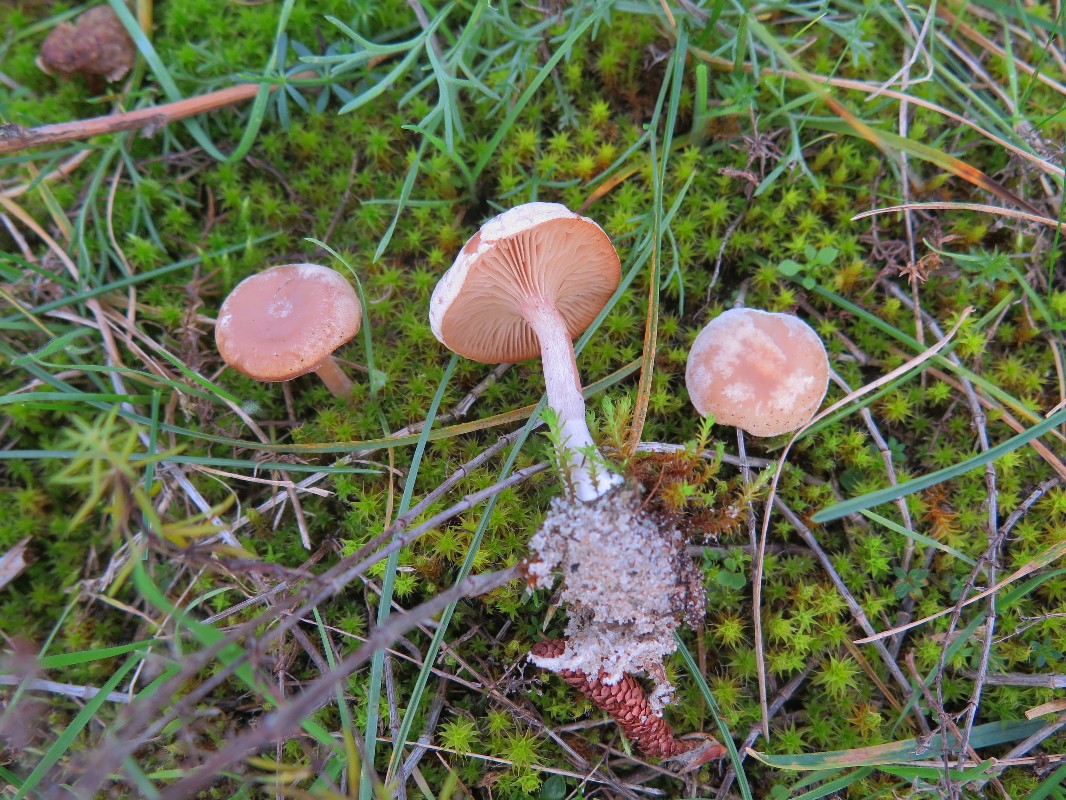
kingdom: Fungi
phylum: Basidiomycota
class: Agaricomycetes
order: Agaricales
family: Tricholomataceae
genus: Clitocybe
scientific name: Clitocybe rivulosa
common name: eng-tragthat
